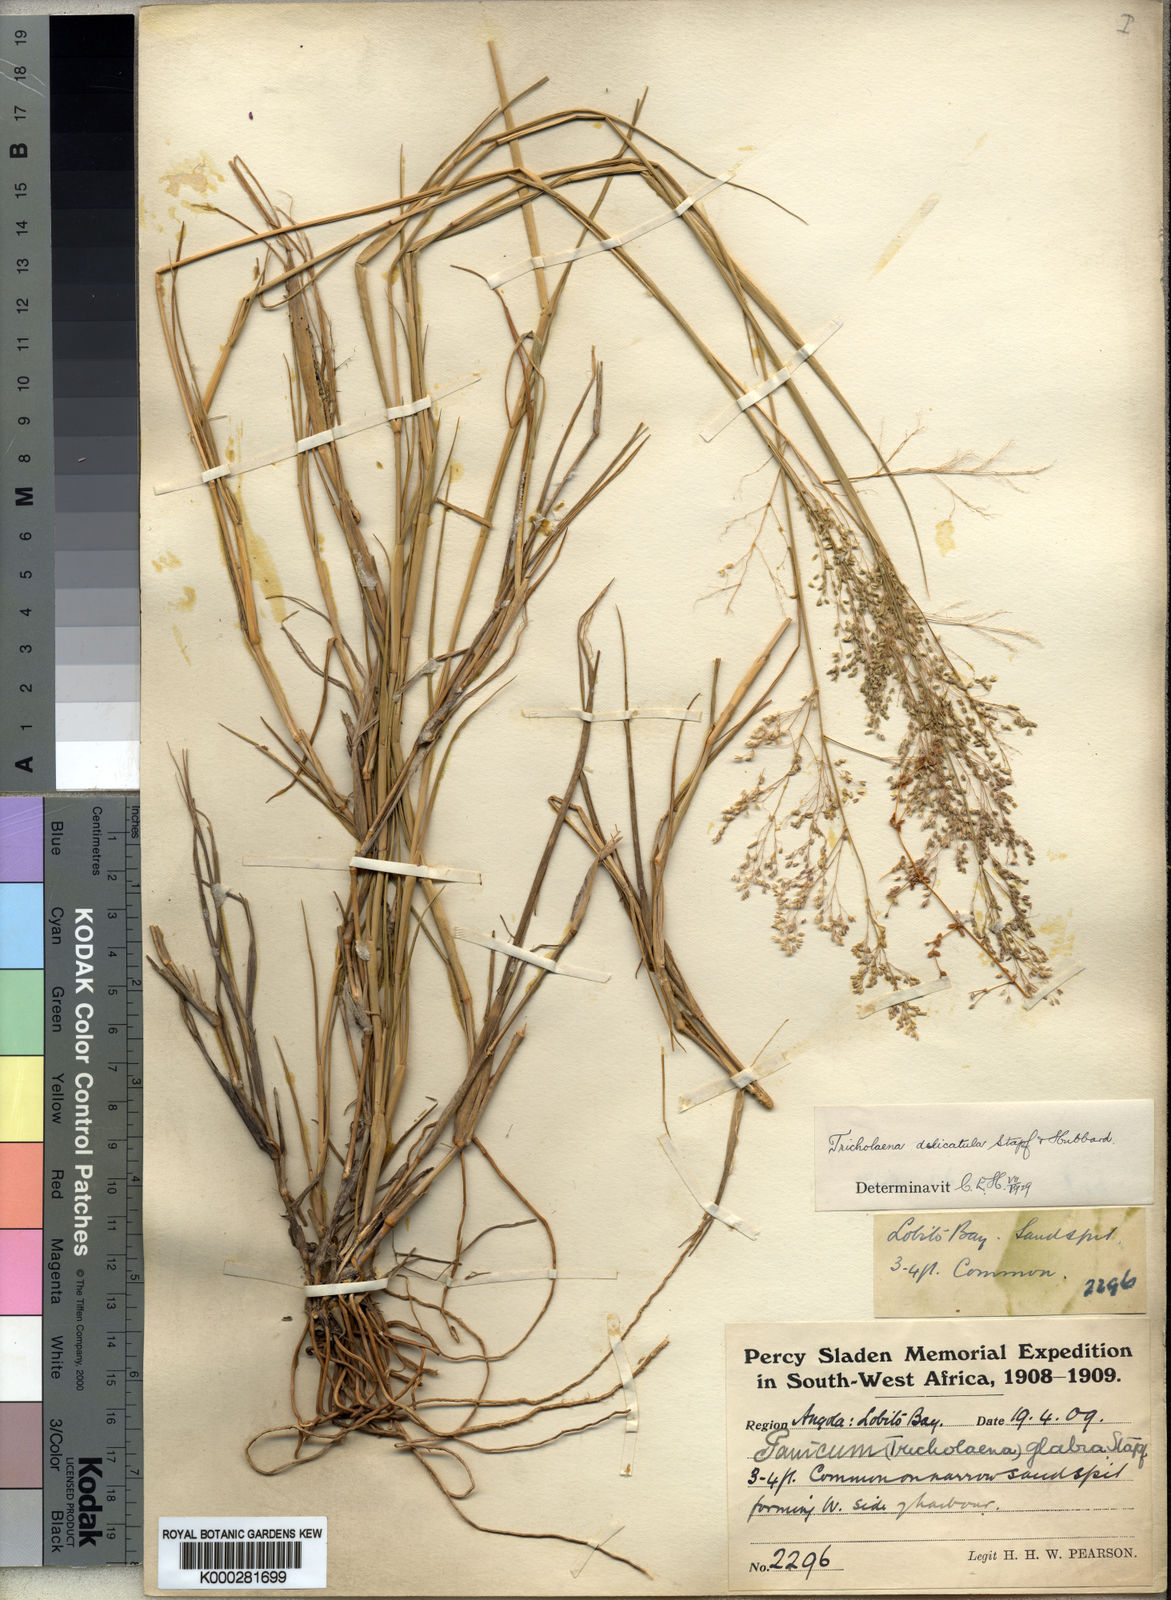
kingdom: Plantae
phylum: Tracheophyta
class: Liliopsida
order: Poales
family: Poaceae
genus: Tricholaena
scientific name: Tricholaena
